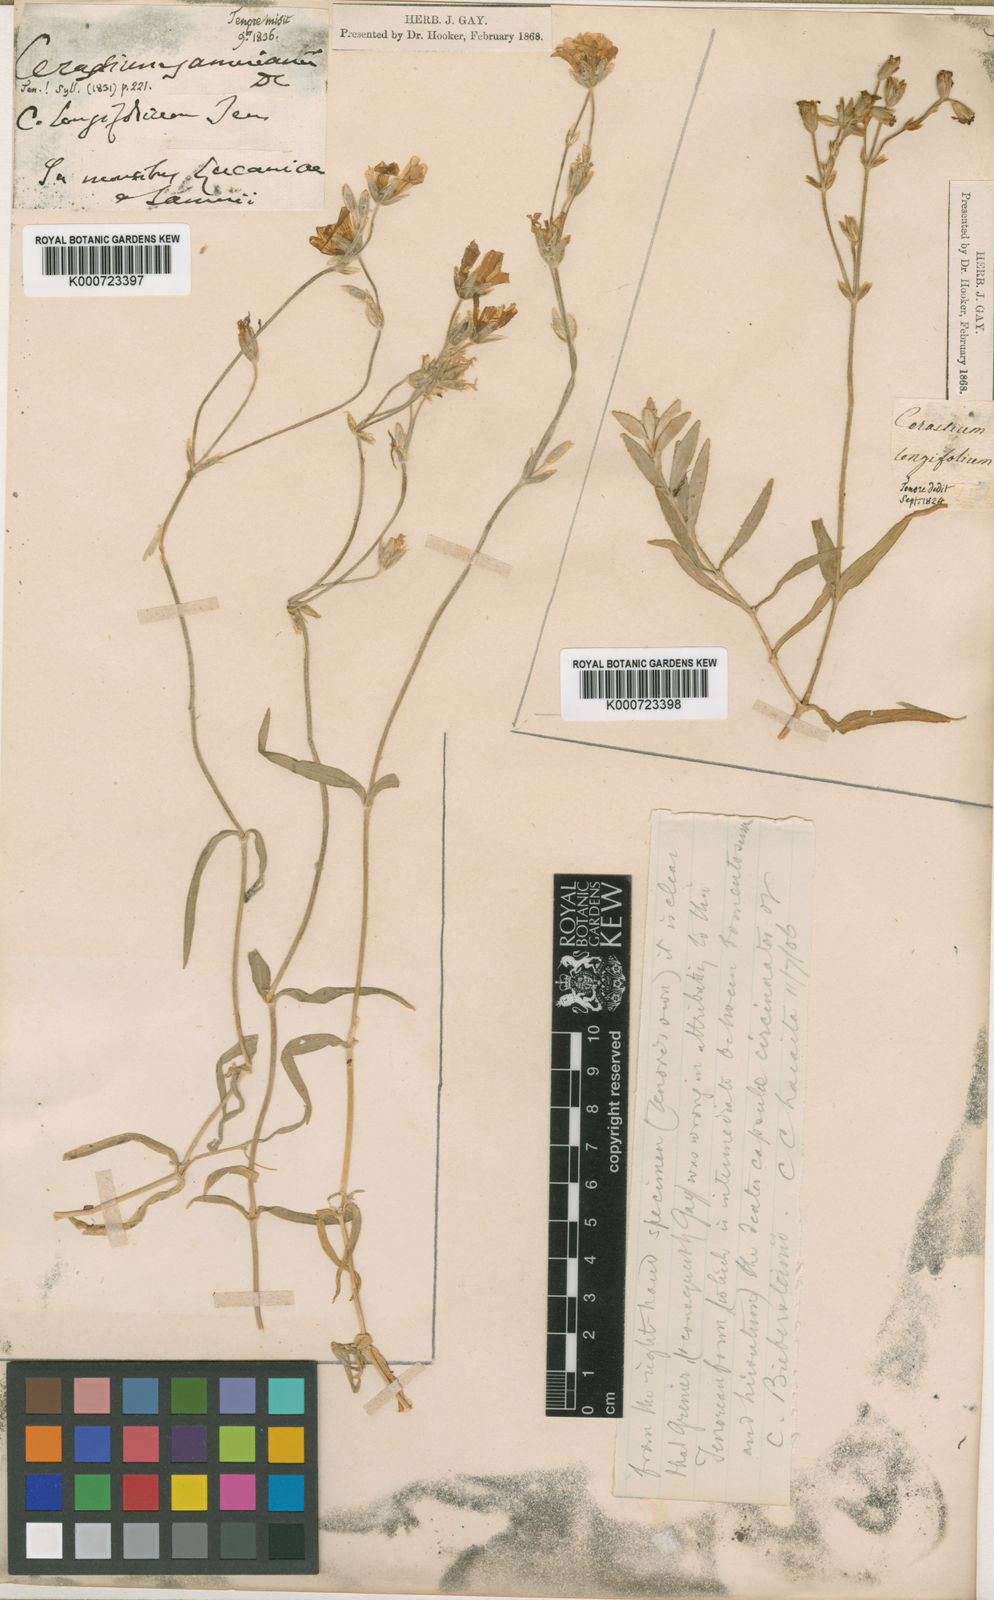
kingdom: Plantae
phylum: Tracheophyta
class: Magnoliopsida
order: Caryophyllales
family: Caryophyllaceae
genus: Cerastium
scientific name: Cerastium glomeratum
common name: Sticky chickweed
